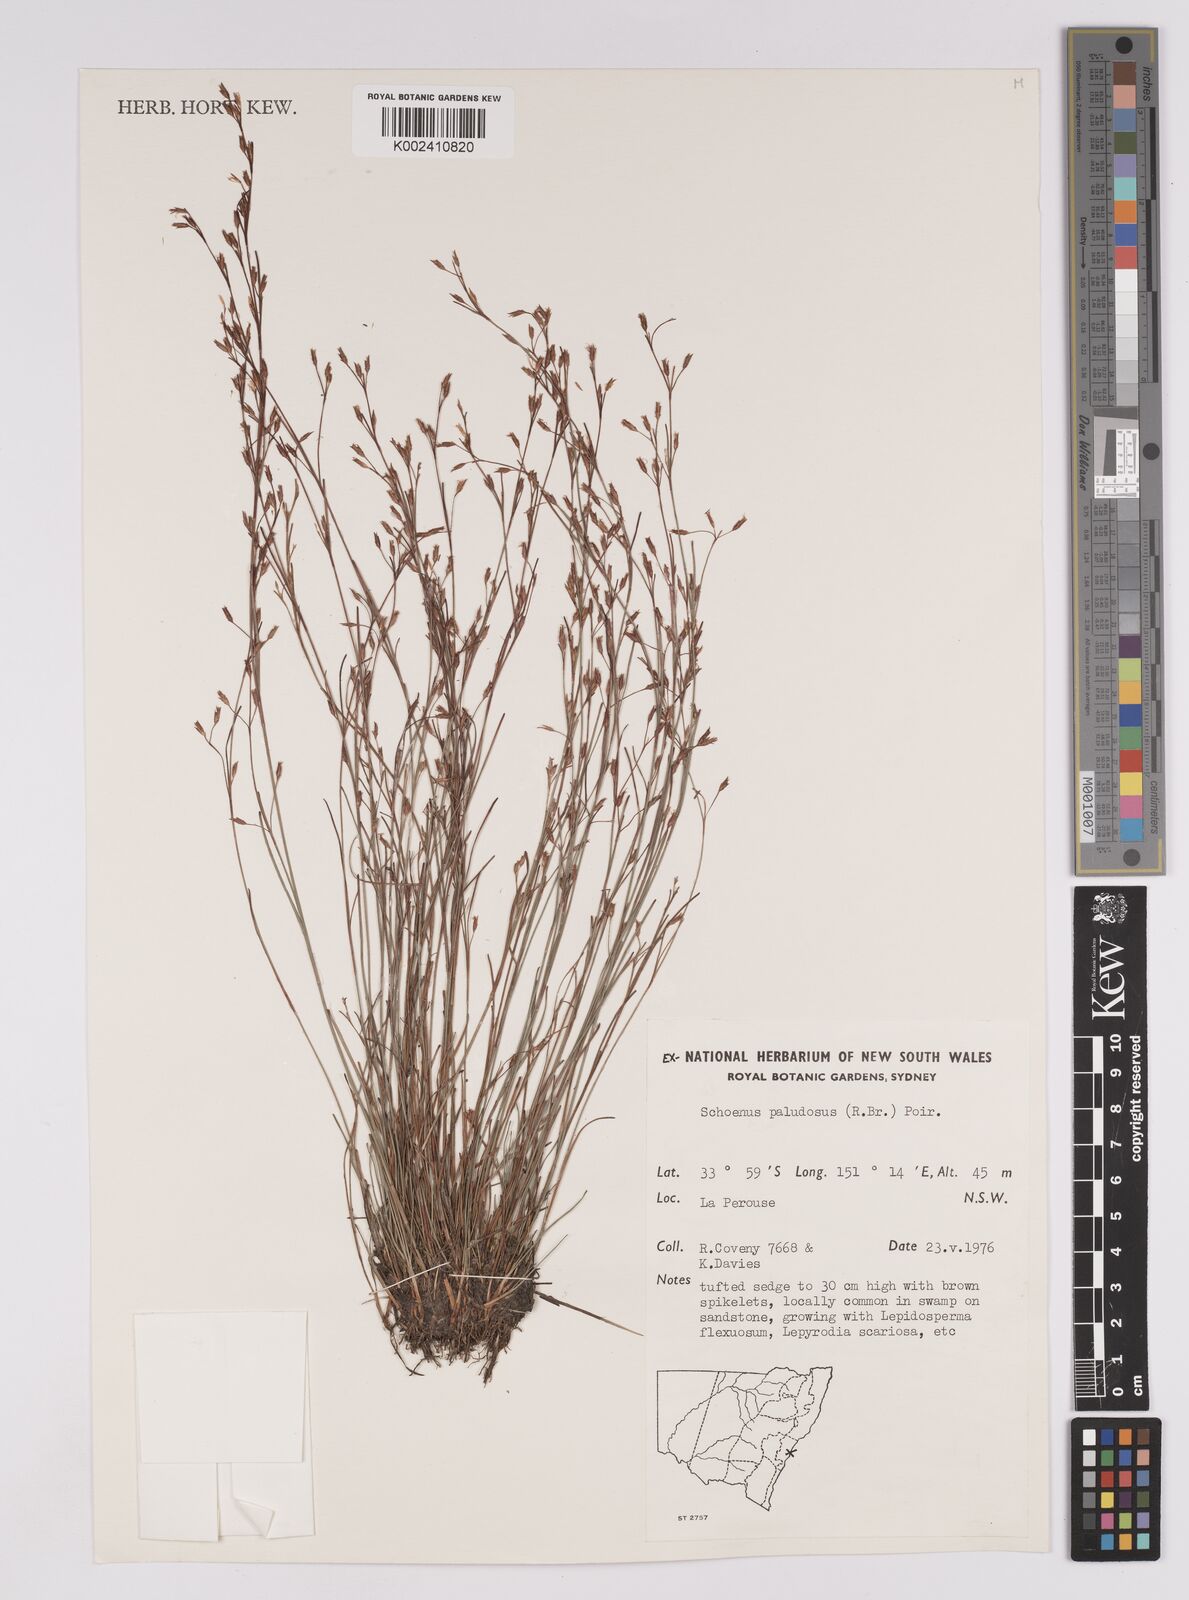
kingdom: Plantae
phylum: Tracheophyta
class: Liliopsida
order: Poales
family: Cyperaceae
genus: Anthelepis
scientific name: Anthelepis paludosa
